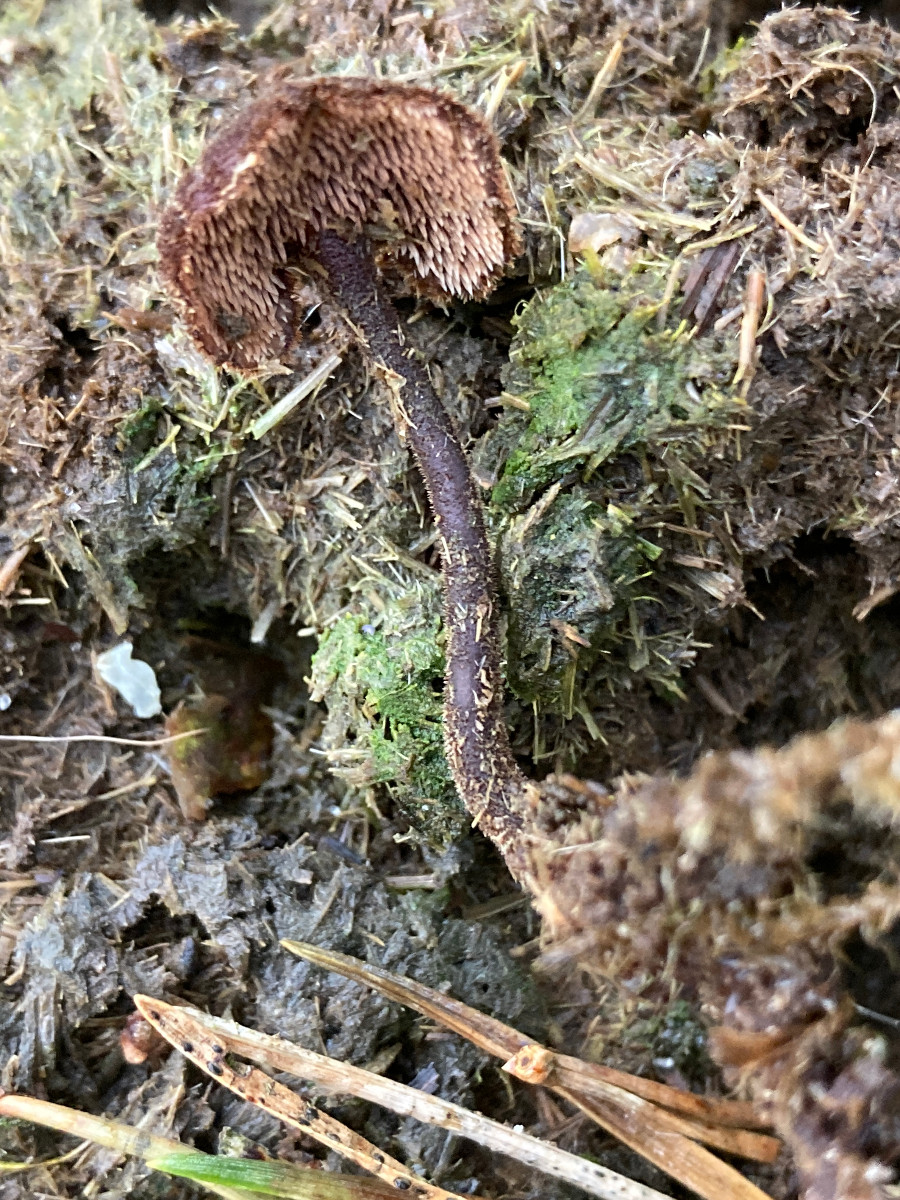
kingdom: Fungi
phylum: Basidiomycota
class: Agaricomycetes
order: Russulales
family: Auriscalpiaceae
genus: Auriscalpium
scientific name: Auriscalpium vulgare
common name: koglepigsvamp
